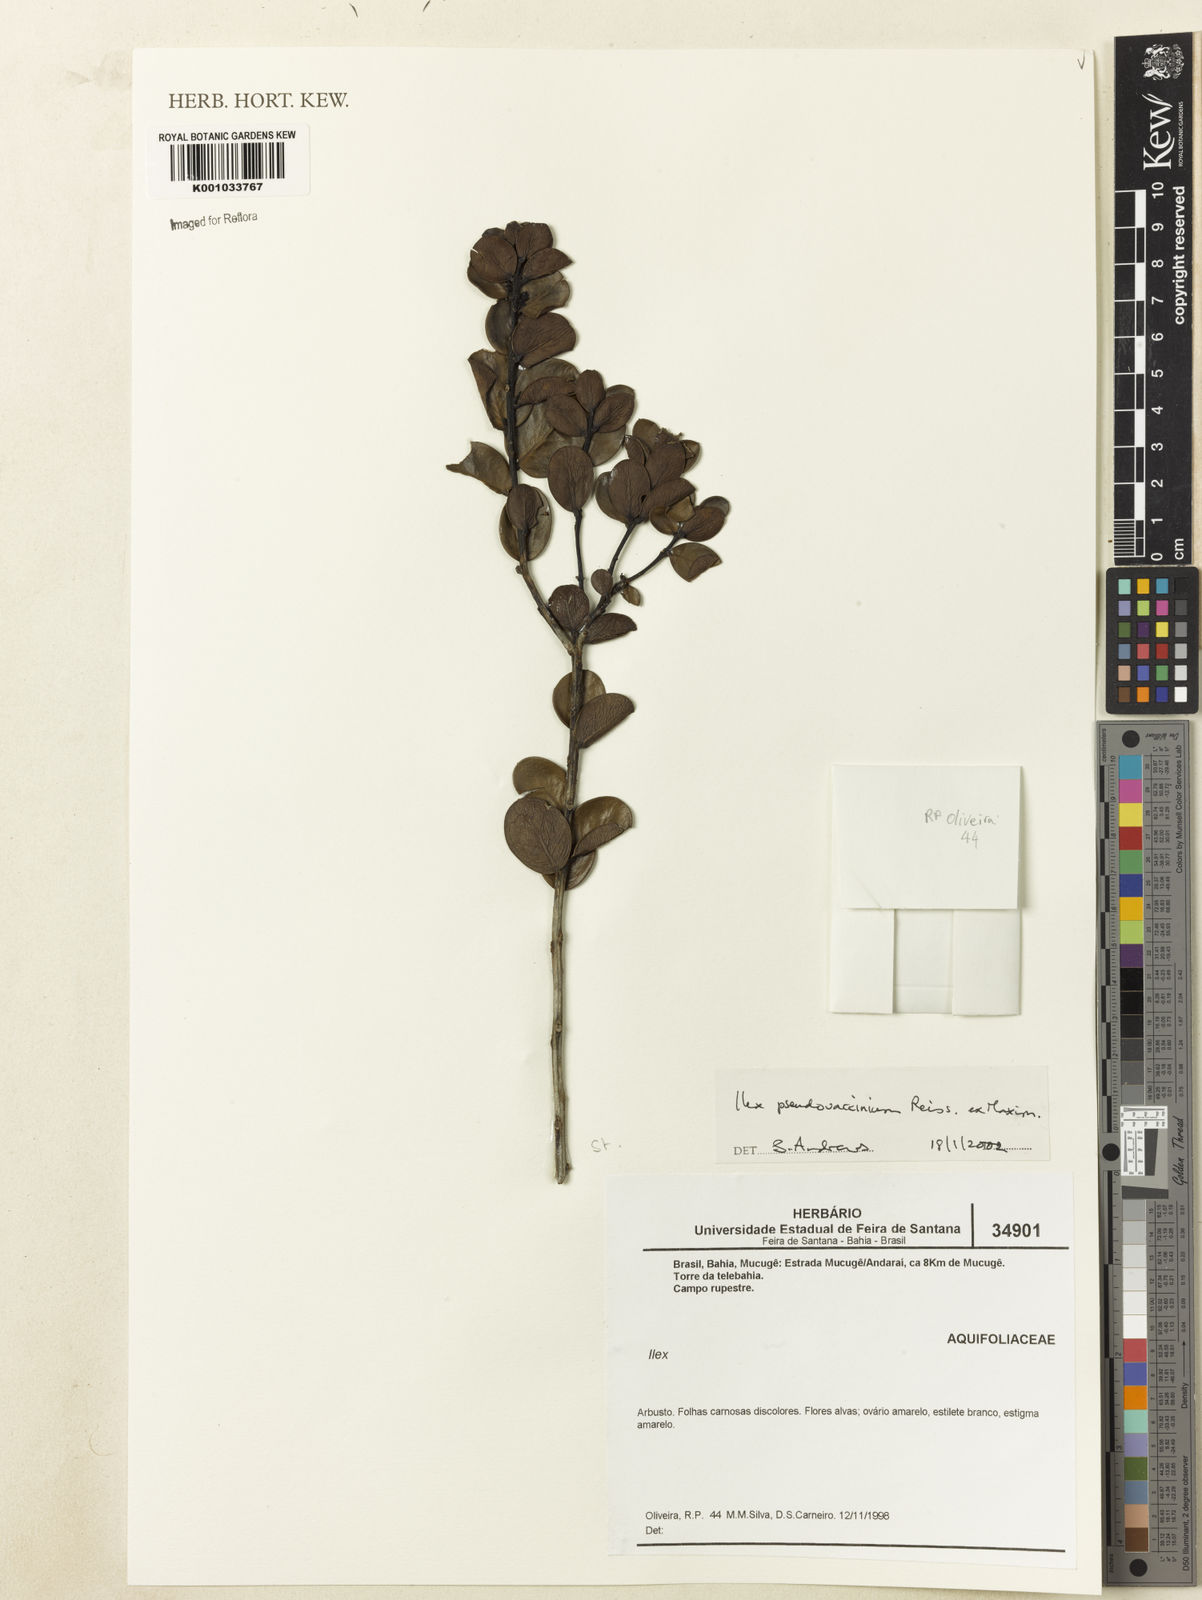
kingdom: Plantae
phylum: Tracheophyta
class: Magnoliopsida
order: Aquifoliales
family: Aquifoliaceae
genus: Ilex
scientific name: Ilex pseudovaccinium
